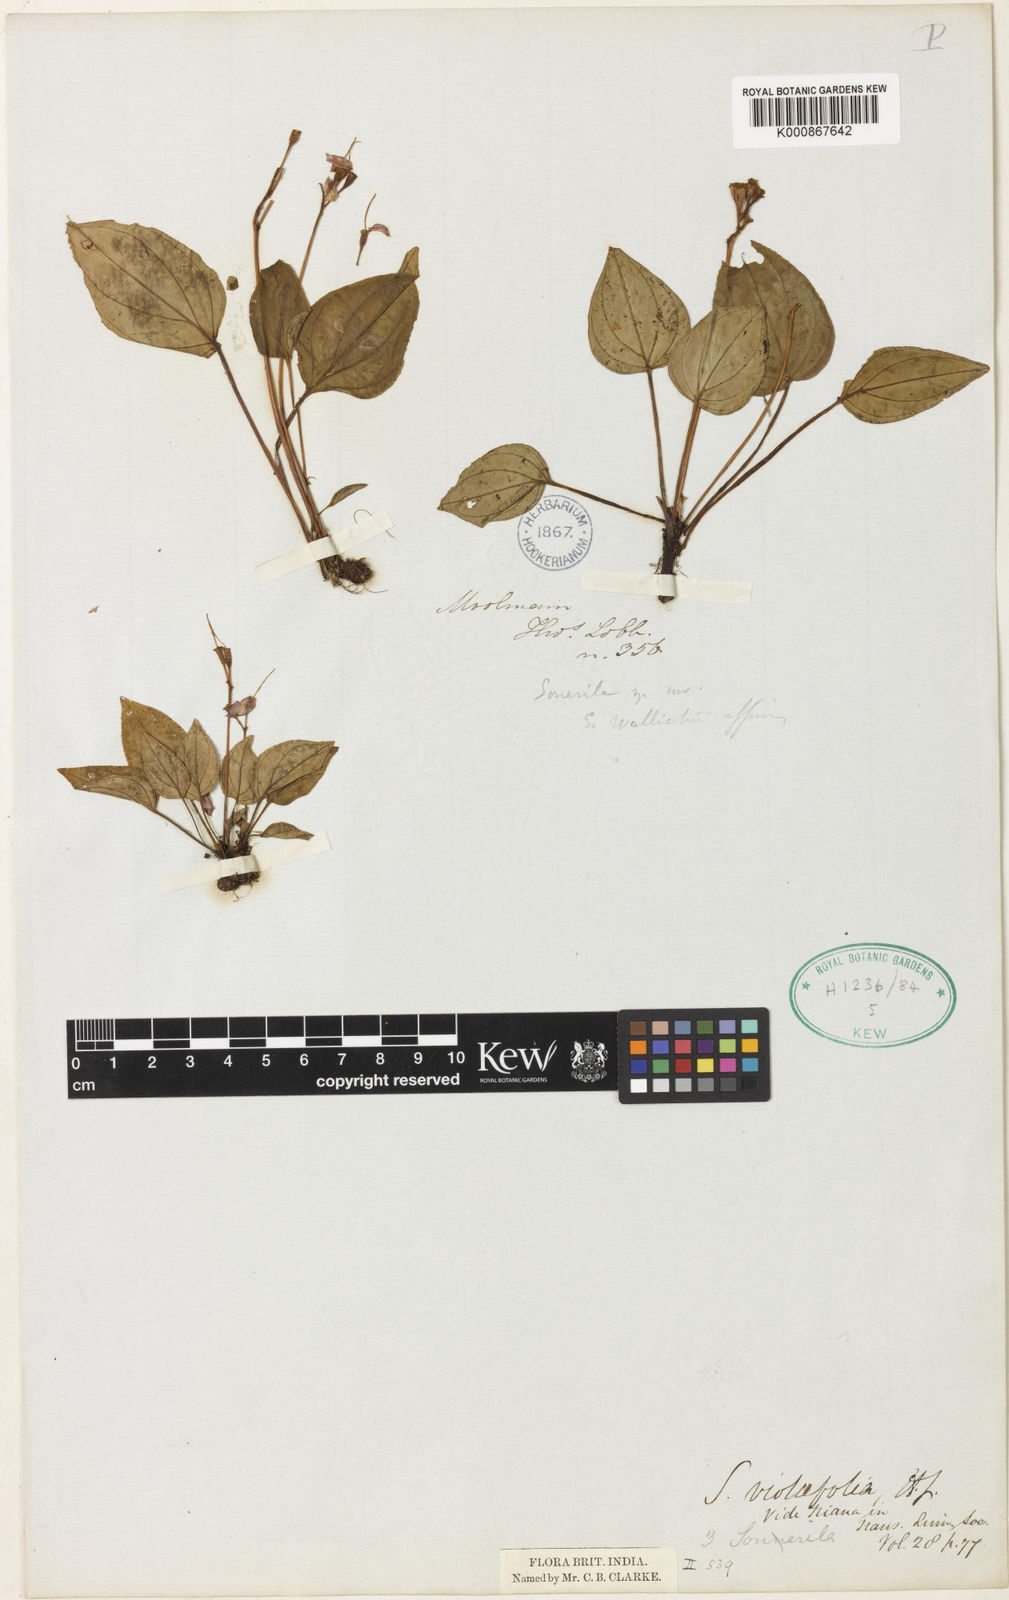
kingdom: Plantae
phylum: Tracheophyta
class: Magnoliopsida
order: Myrtales
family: Melastomataceae
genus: Sonerila
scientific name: Sonerila violifolia
